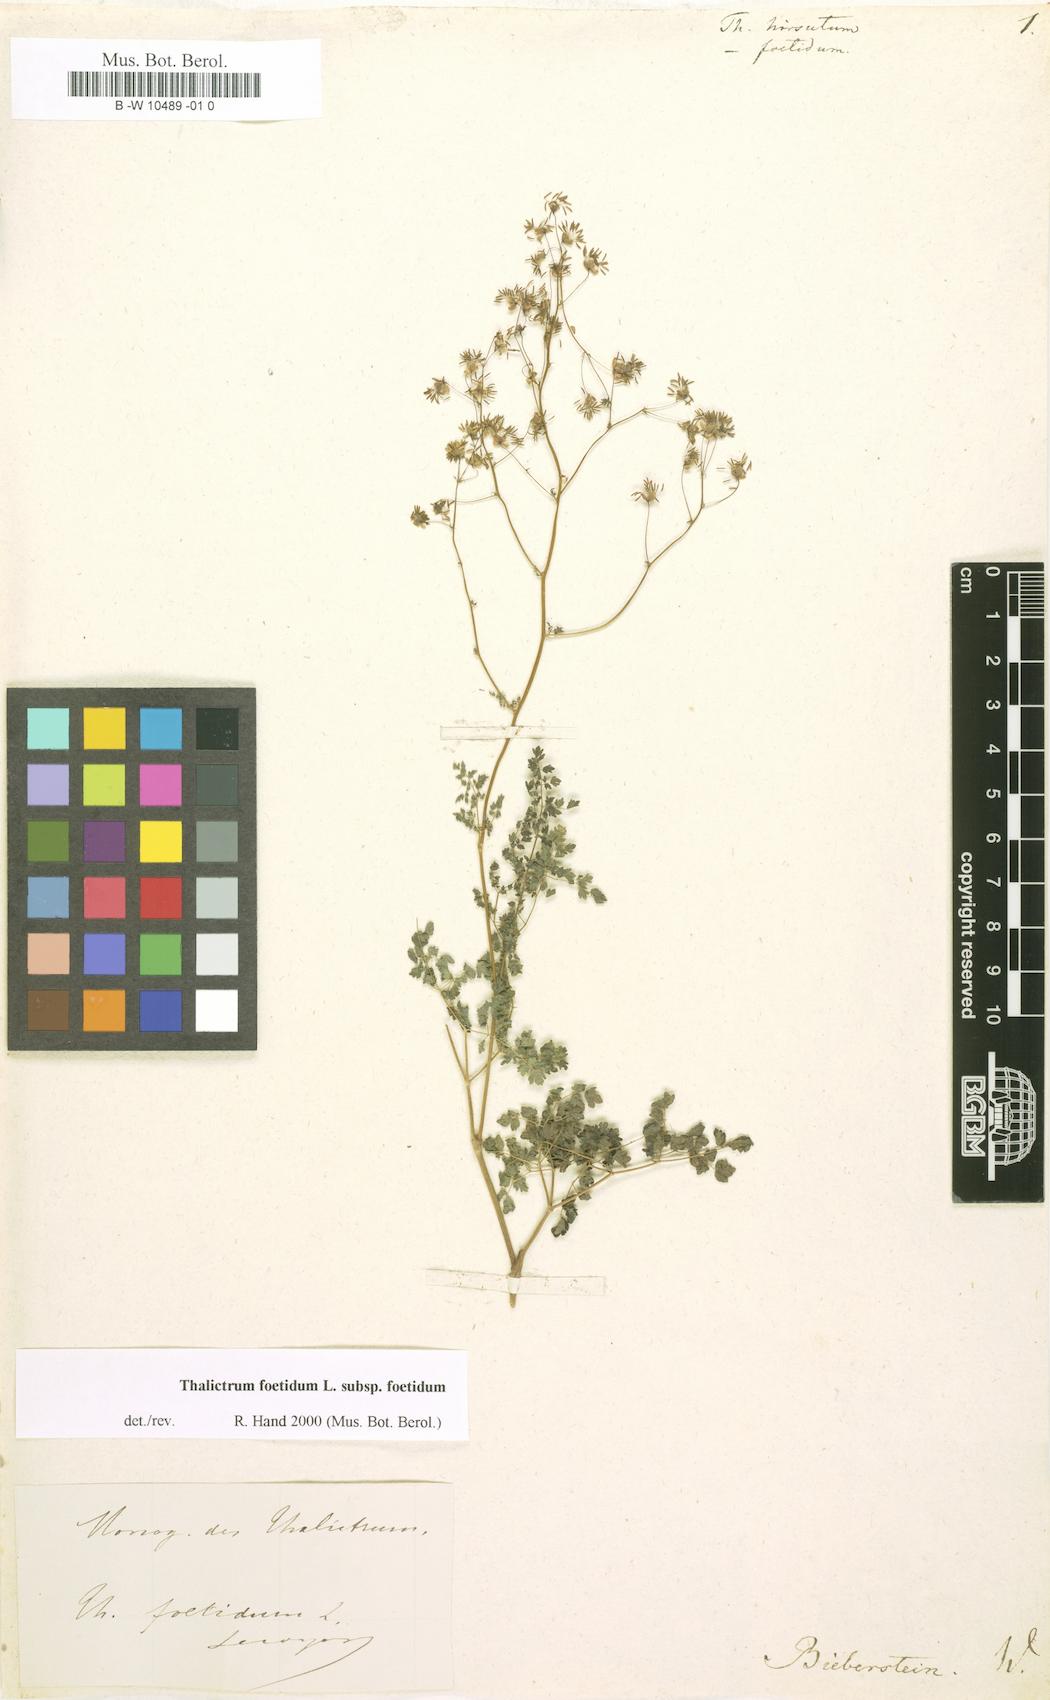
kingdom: Plantae
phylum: Tracheophyta
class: Magnoliopsida
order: Ranunculales
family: Ranunculaceae
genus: Thalictrum
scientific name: Thalictrum hirsutum
